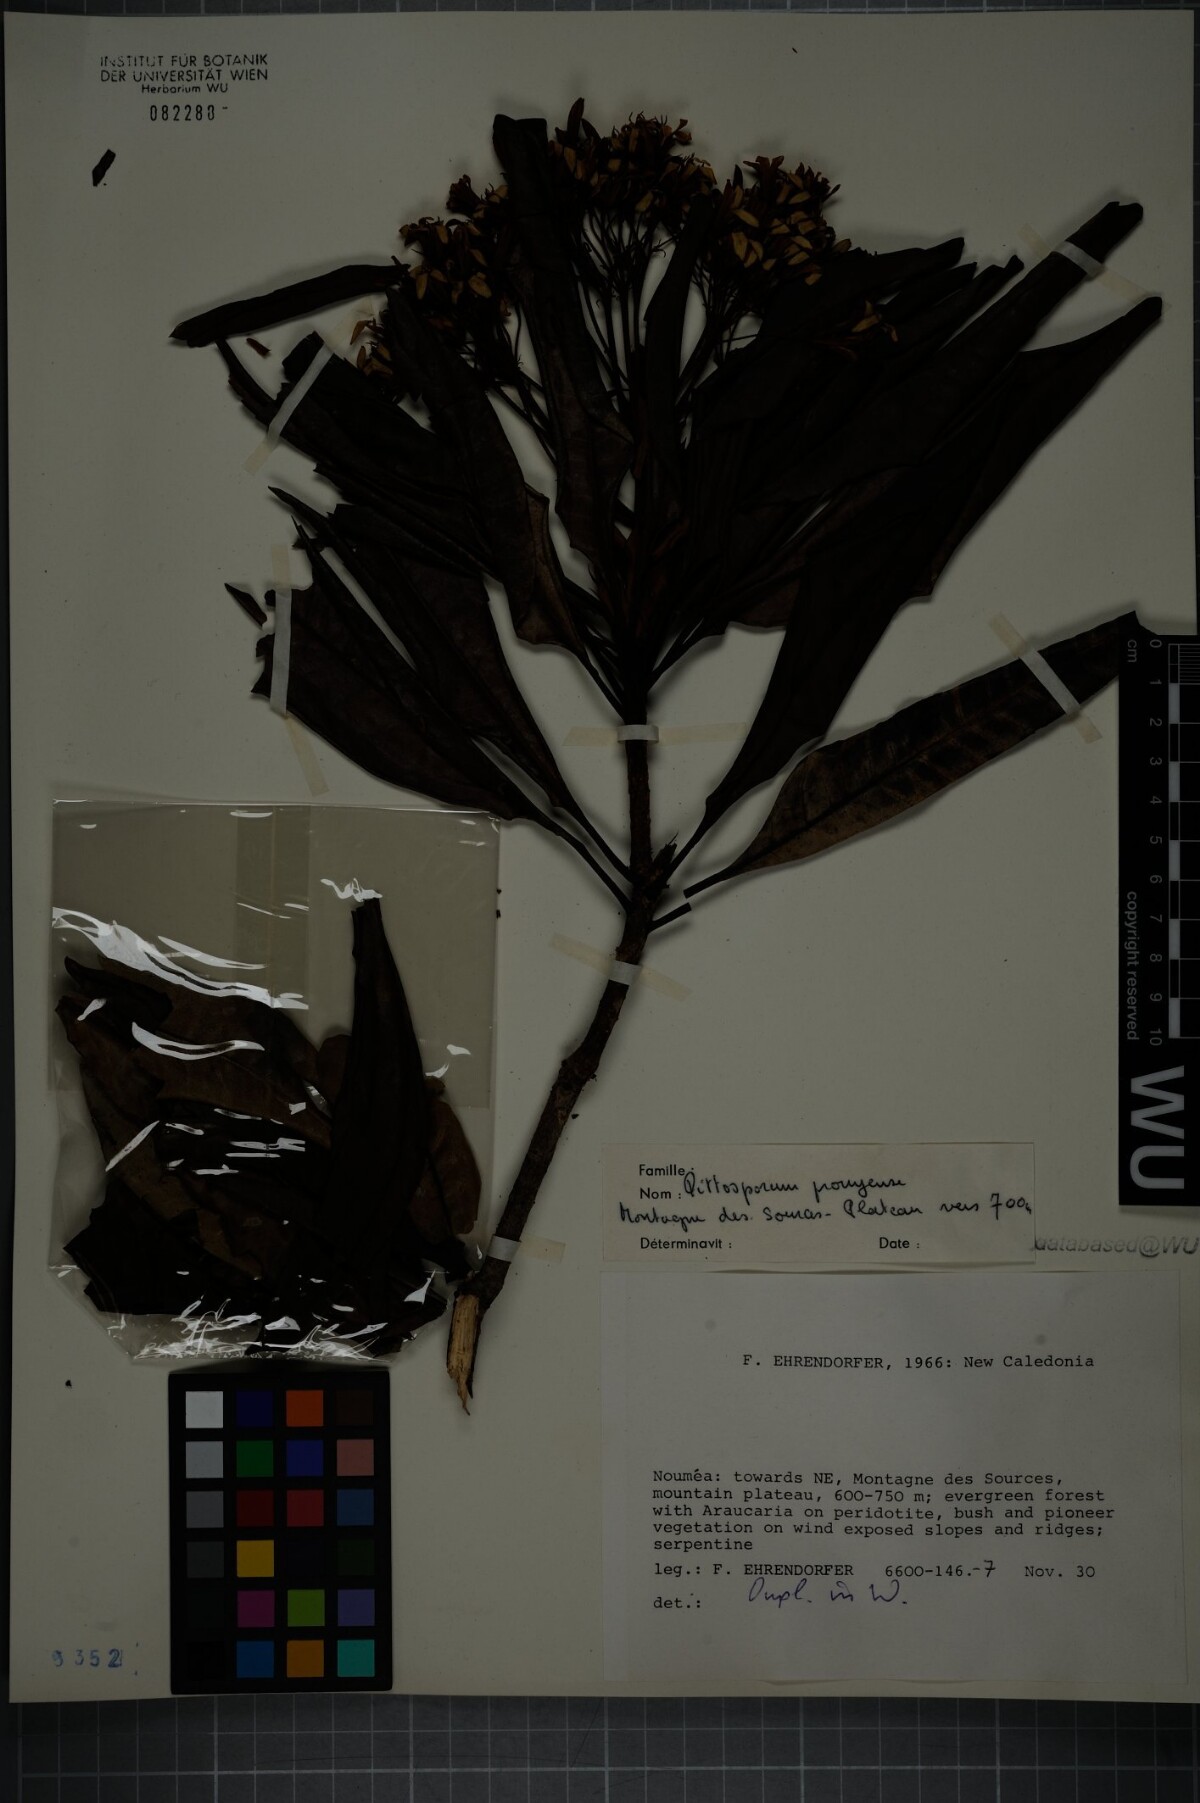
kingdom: Plantae
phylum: Tracheophyta
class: Magnoliopsida
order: Apiales
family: Pittosporaceae
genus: Pittosporum
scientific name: Pittosporum pronyense
